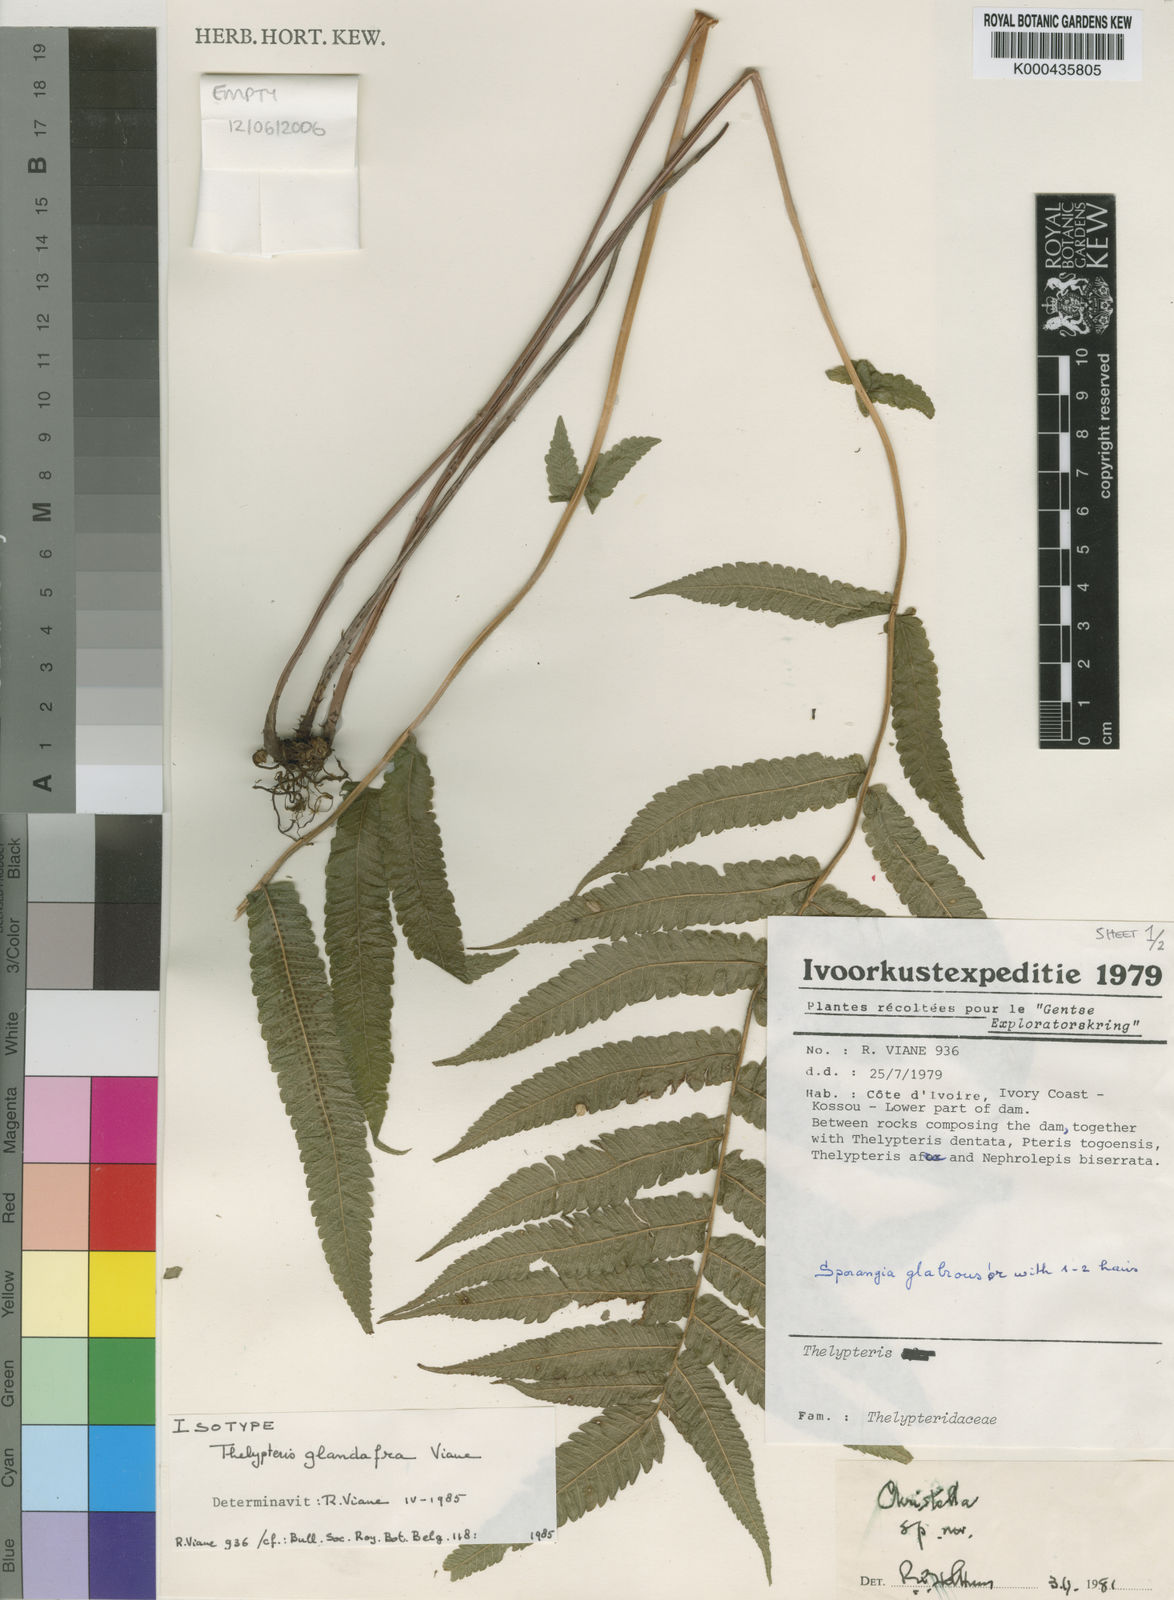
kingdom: Plantae
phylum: Tracheophyta
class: Polypodiopsida
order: Polypodiales
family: Thelypteridaceae
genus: Christella
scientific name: Christella
